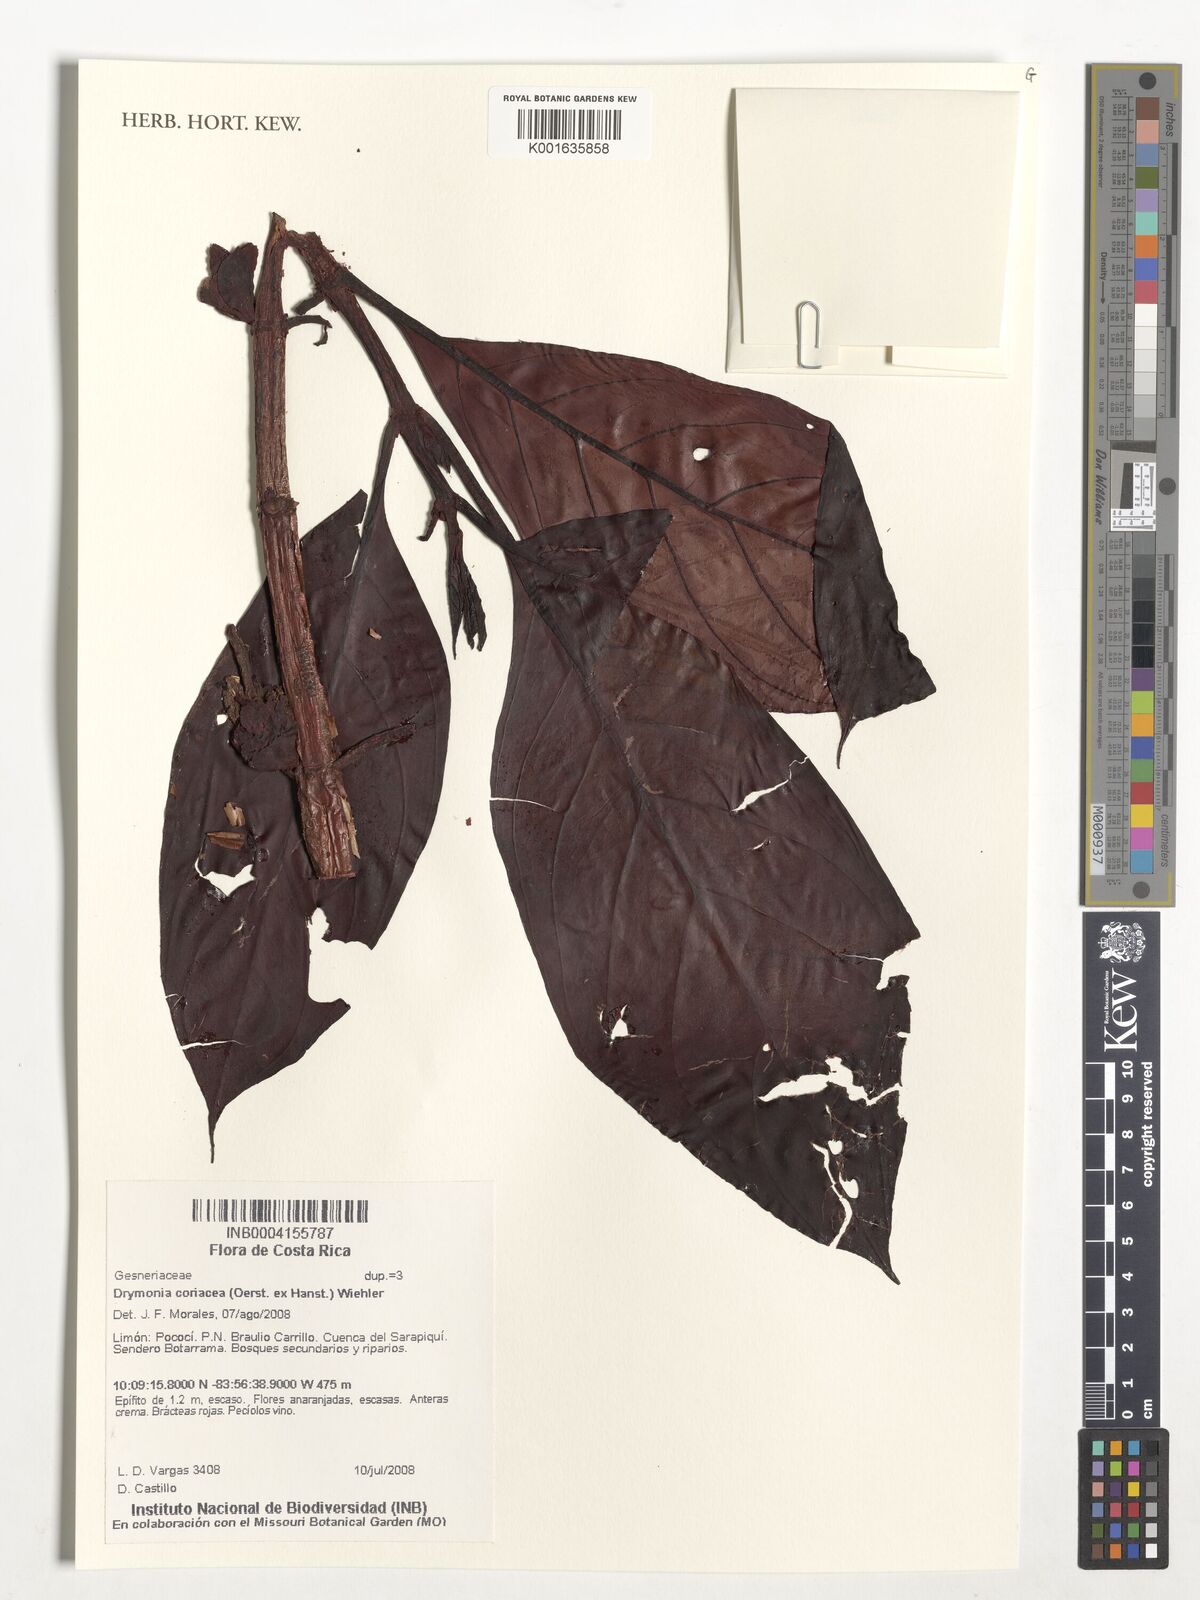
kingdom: Plantae
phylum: Tracheophyta
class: Magnoliopsida
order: Lamiales
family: Gesneriaceae
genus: Drymonia
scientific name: Drymonia coriacea
